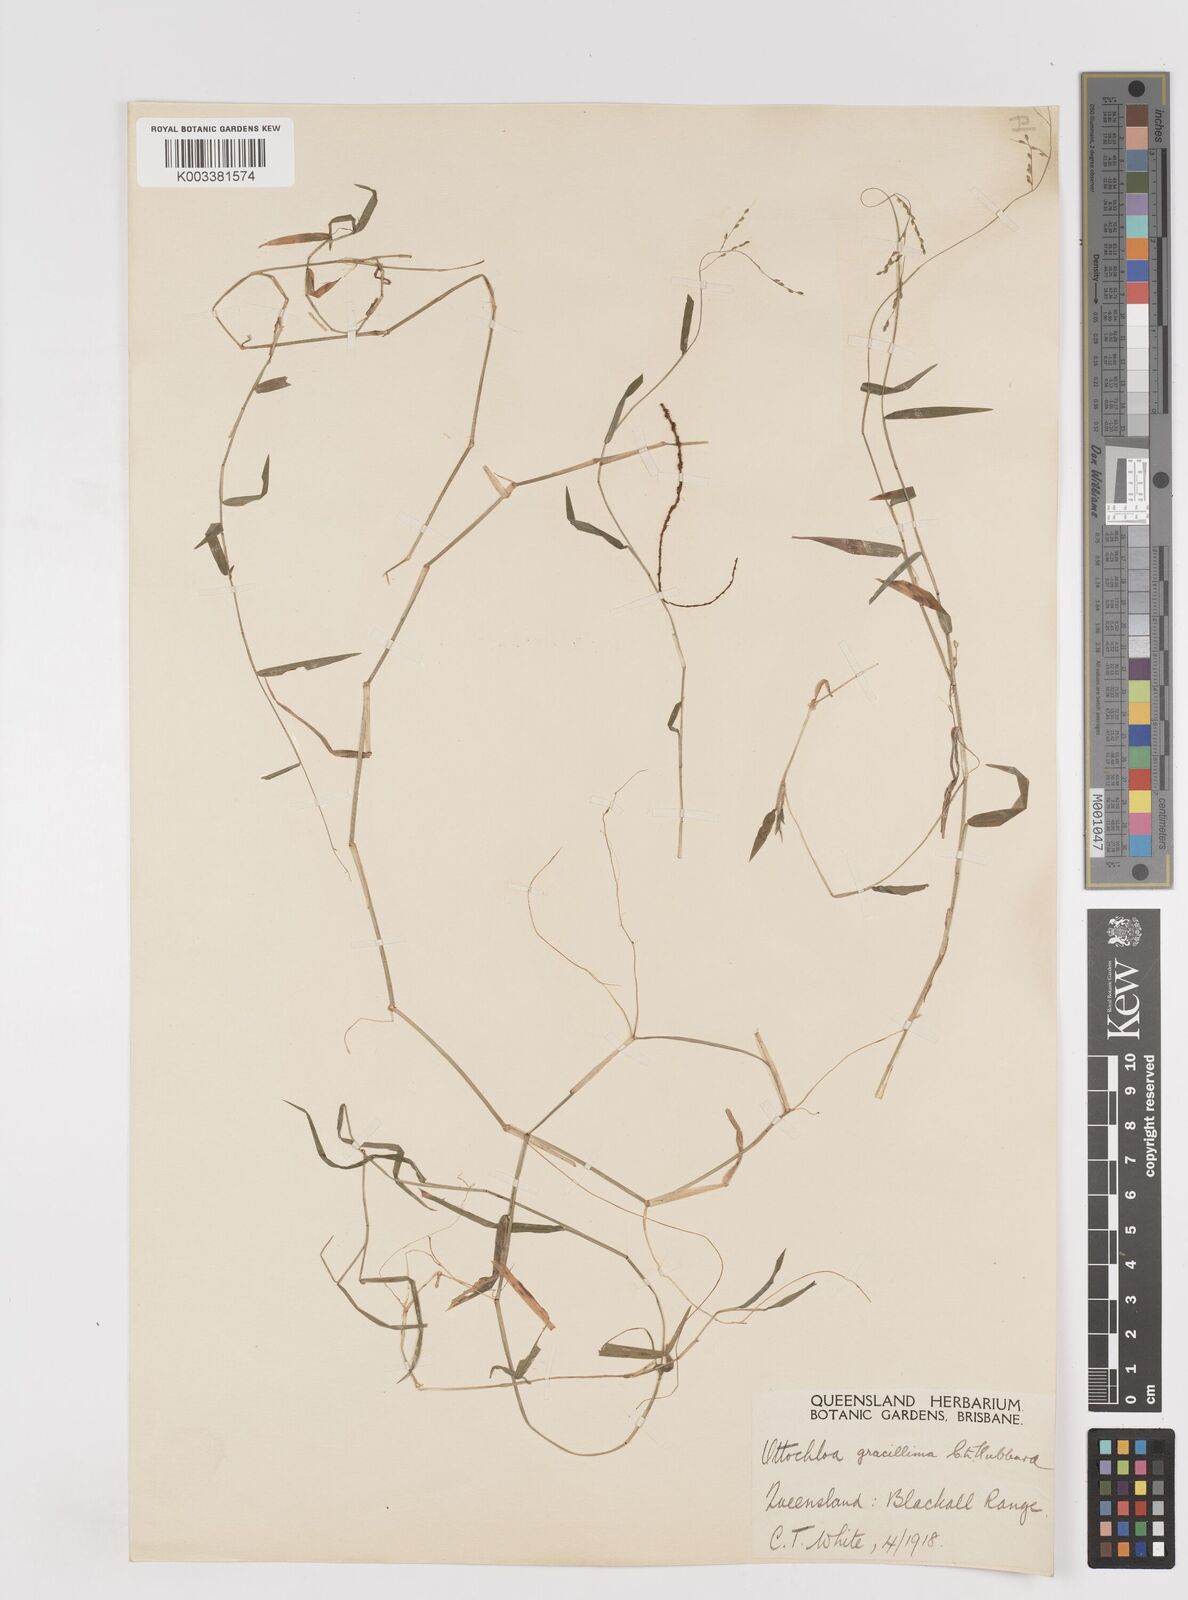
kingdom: Plantae
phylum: Tracheophyta
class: Liliopsida
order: Poales
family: Poaceae
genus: Ottochloa
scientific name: Ottochloa gracillima
